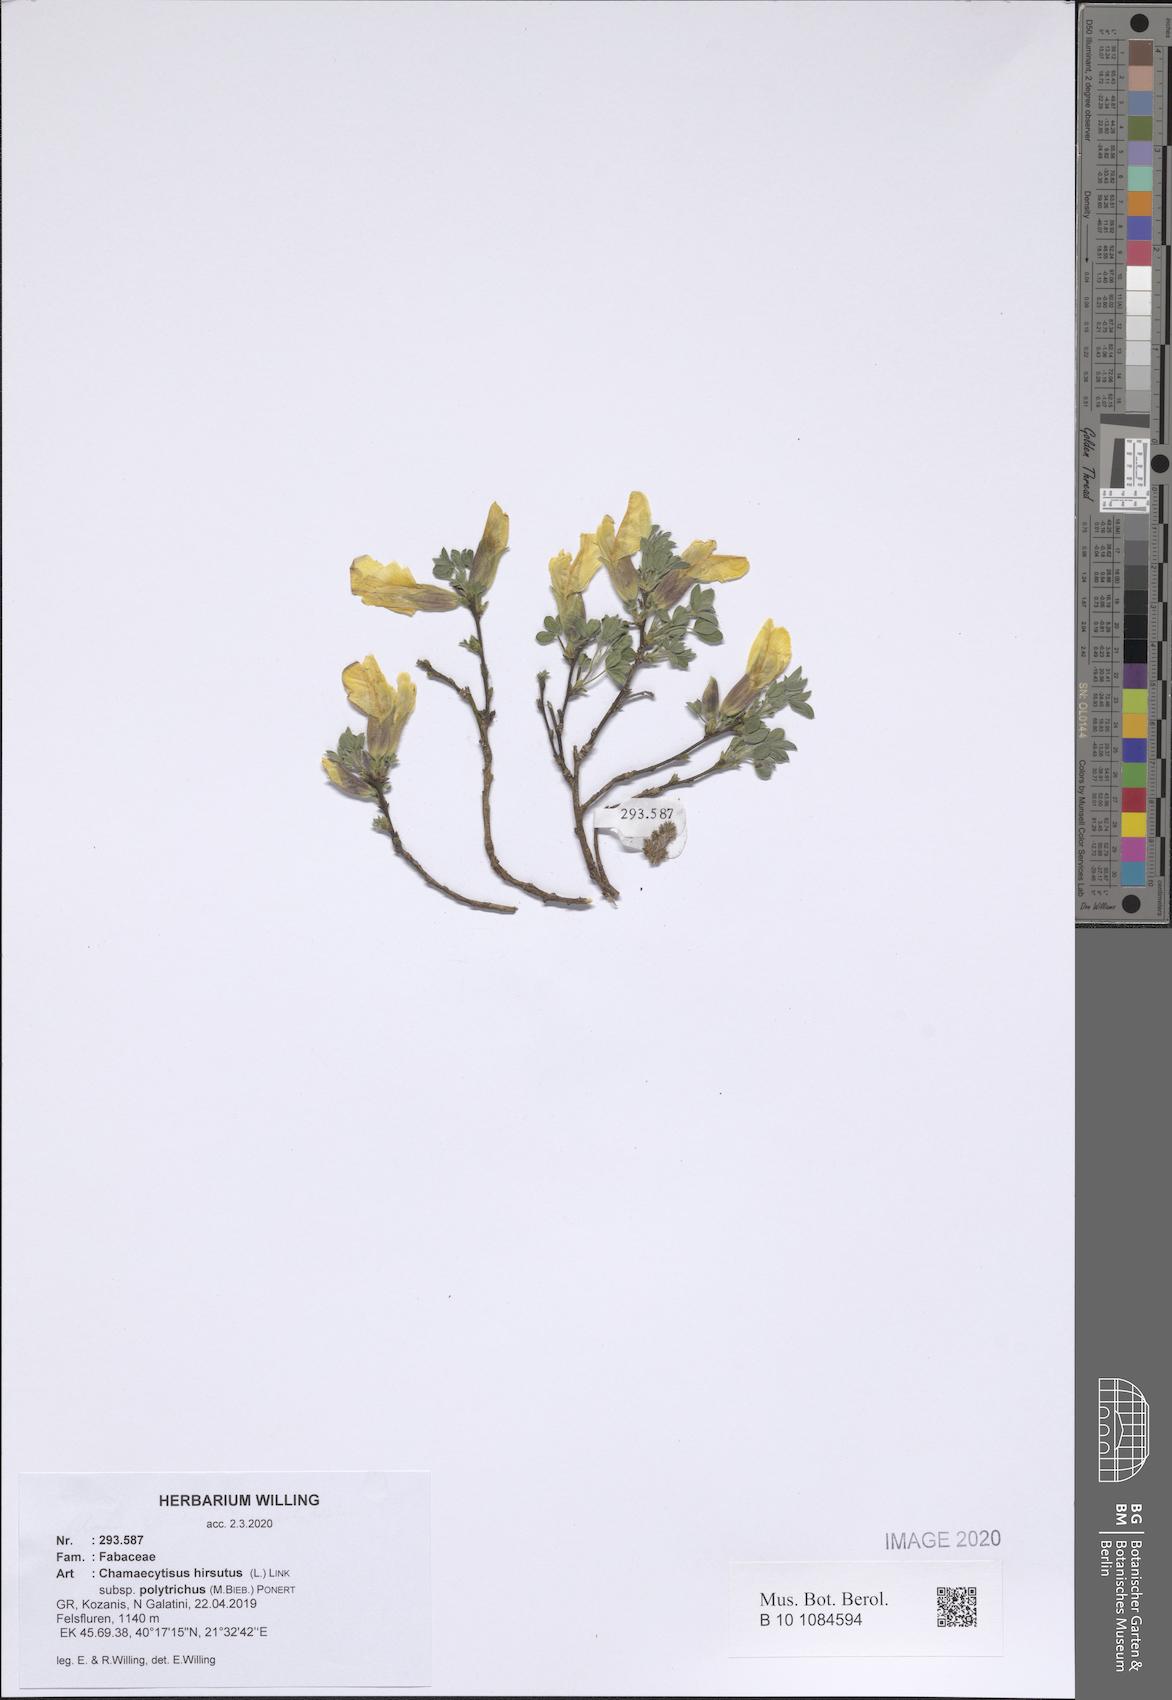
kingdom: Plantae
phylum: Tracheophyta
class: Magnoliopsida
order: Fabales
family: Fabaceae
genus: Chamaecytisus
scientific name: Chamaecytisus hirsutus
